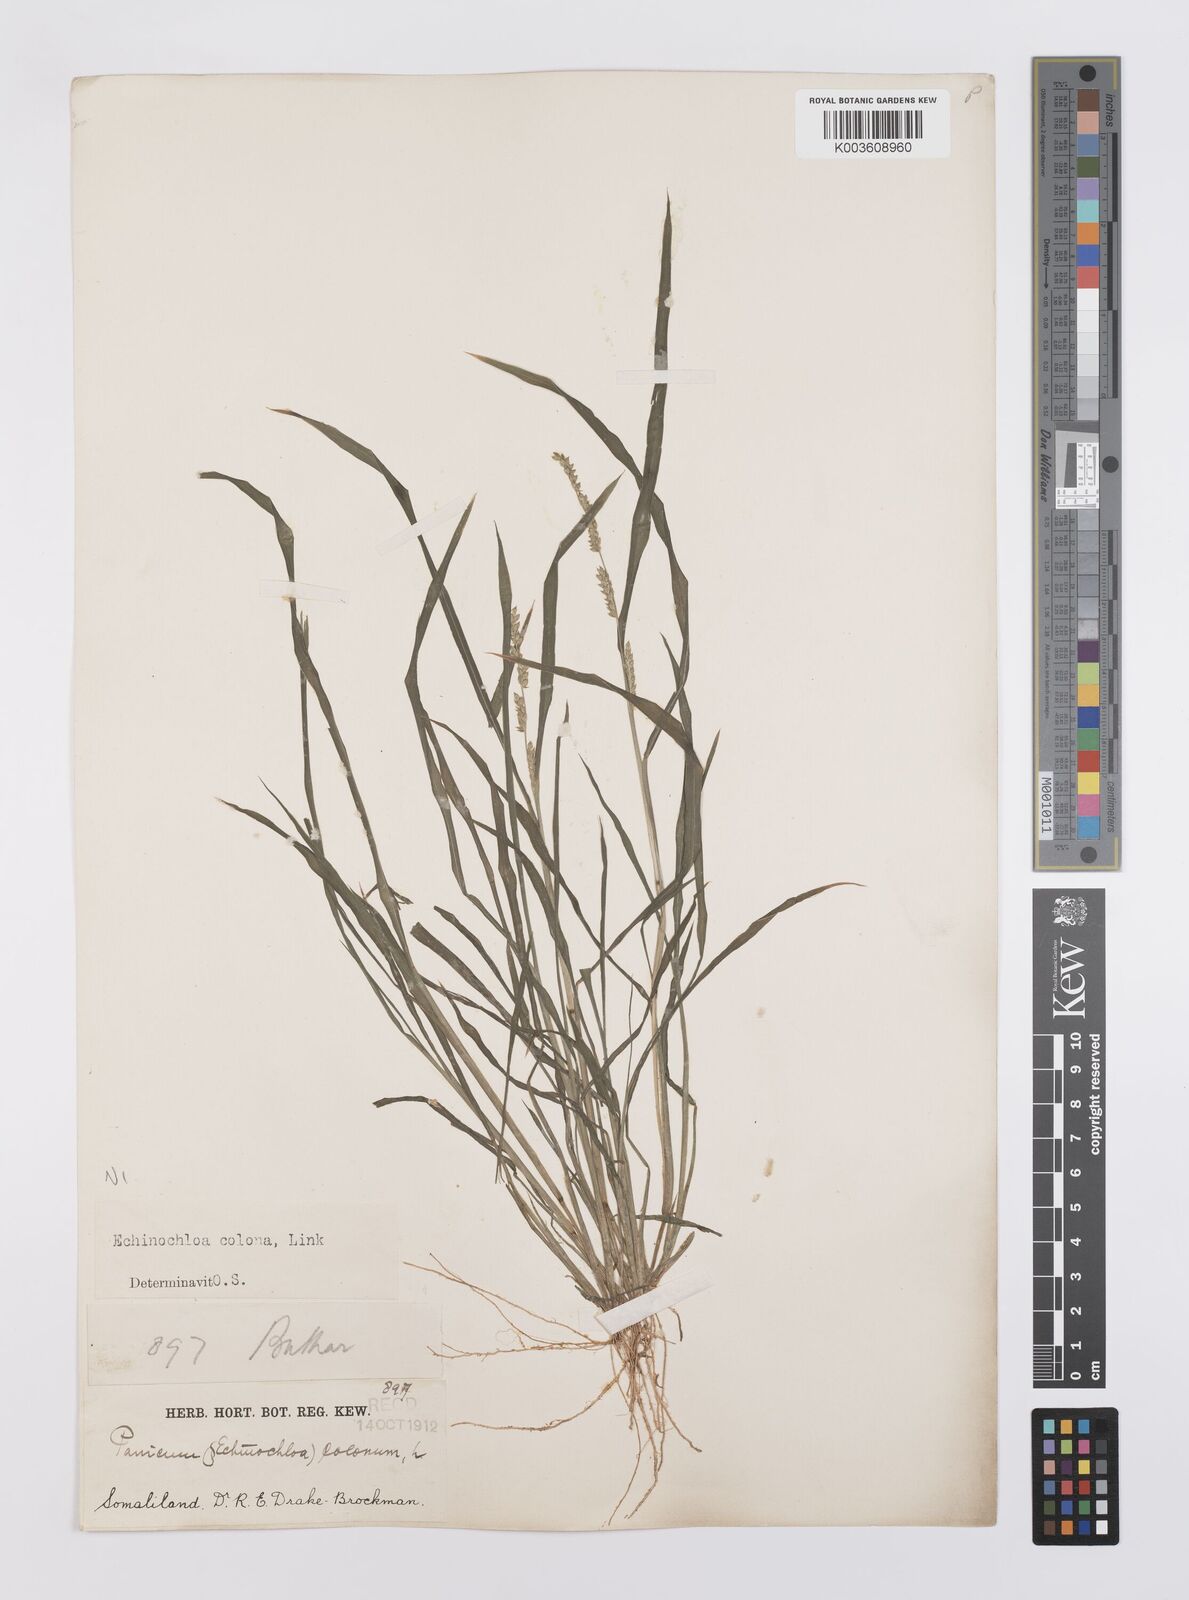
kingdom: Plantae
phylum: Tracheophyta
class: Liliopsida
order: Poales
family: Poaceae
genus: Echinochloa
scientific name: Echinochloa colonum
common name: Jungle rice
